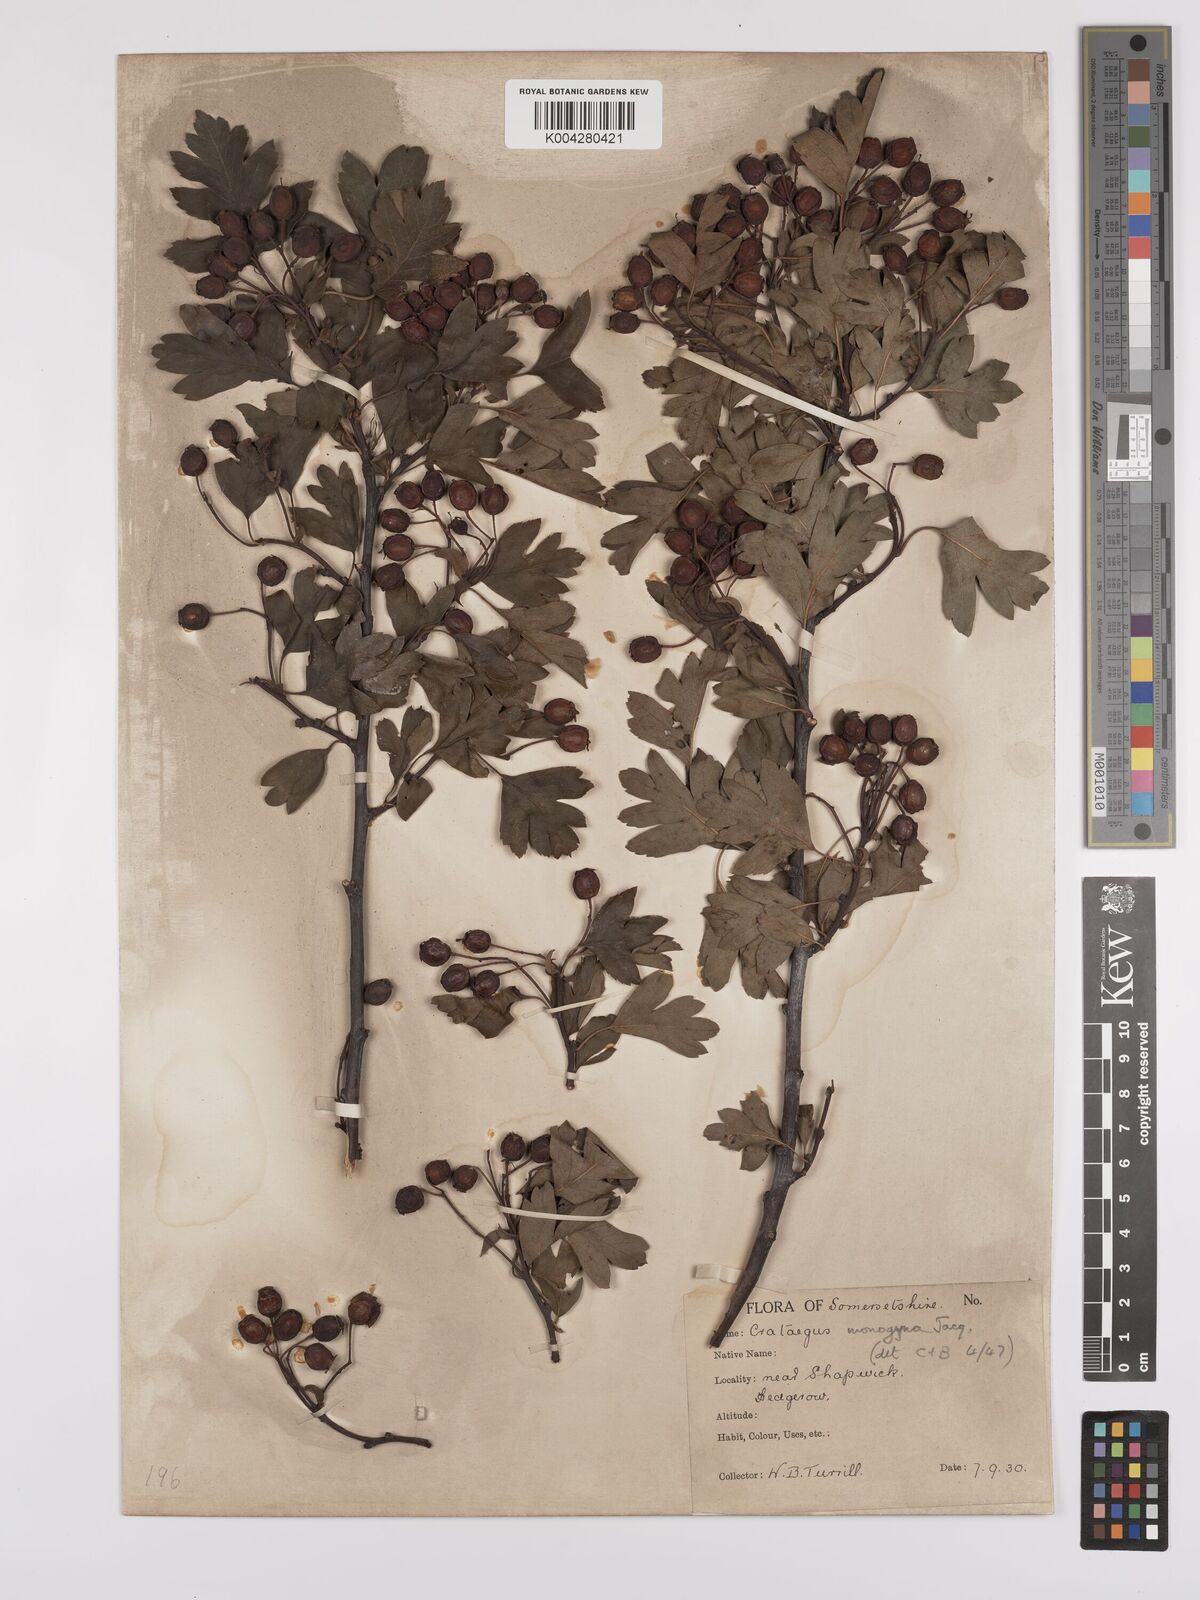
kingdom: Plantae
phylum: Tracheophyta
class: Magnoliopsida
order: Rosales
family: Rosaceae
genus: Crataegus
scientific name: Crataegus monogyna
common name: Hawthorn
